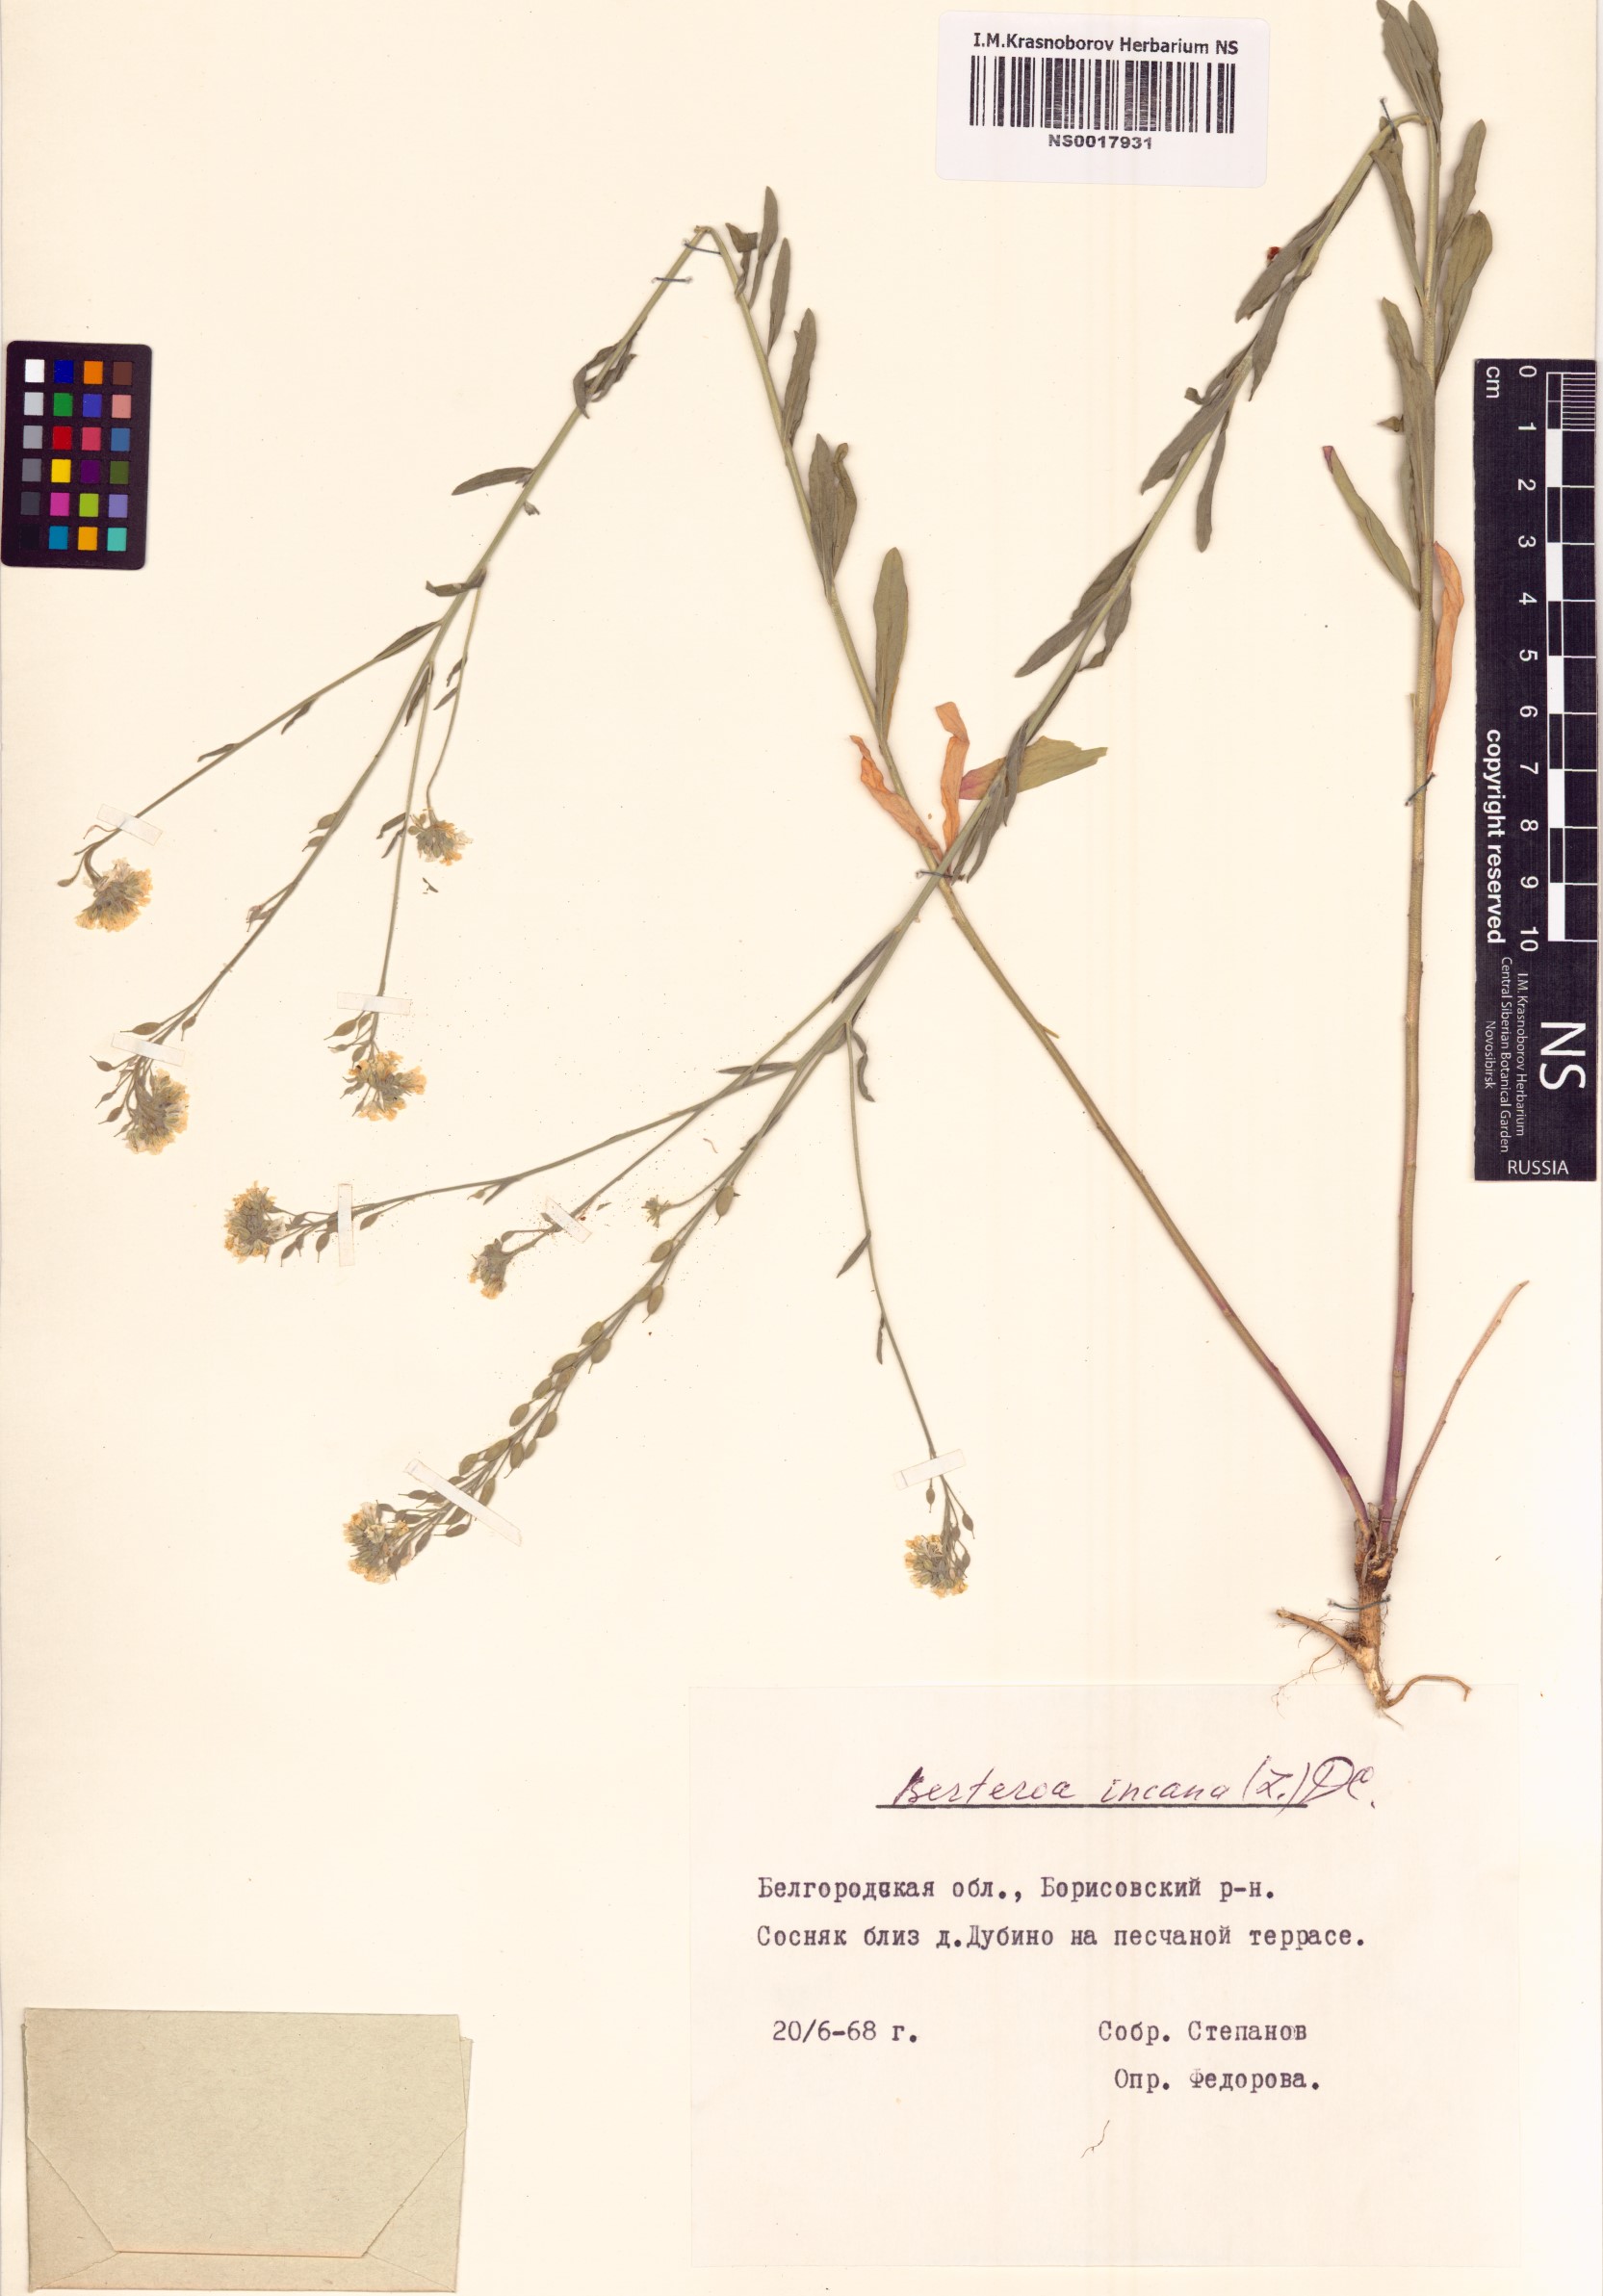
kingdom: Plantae
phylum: Tracheophyta
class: Magnoliopsida
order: Brassicales
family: Brassicaceae
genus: Berteroa
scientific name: Berteroa incana
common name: Hoary alison
